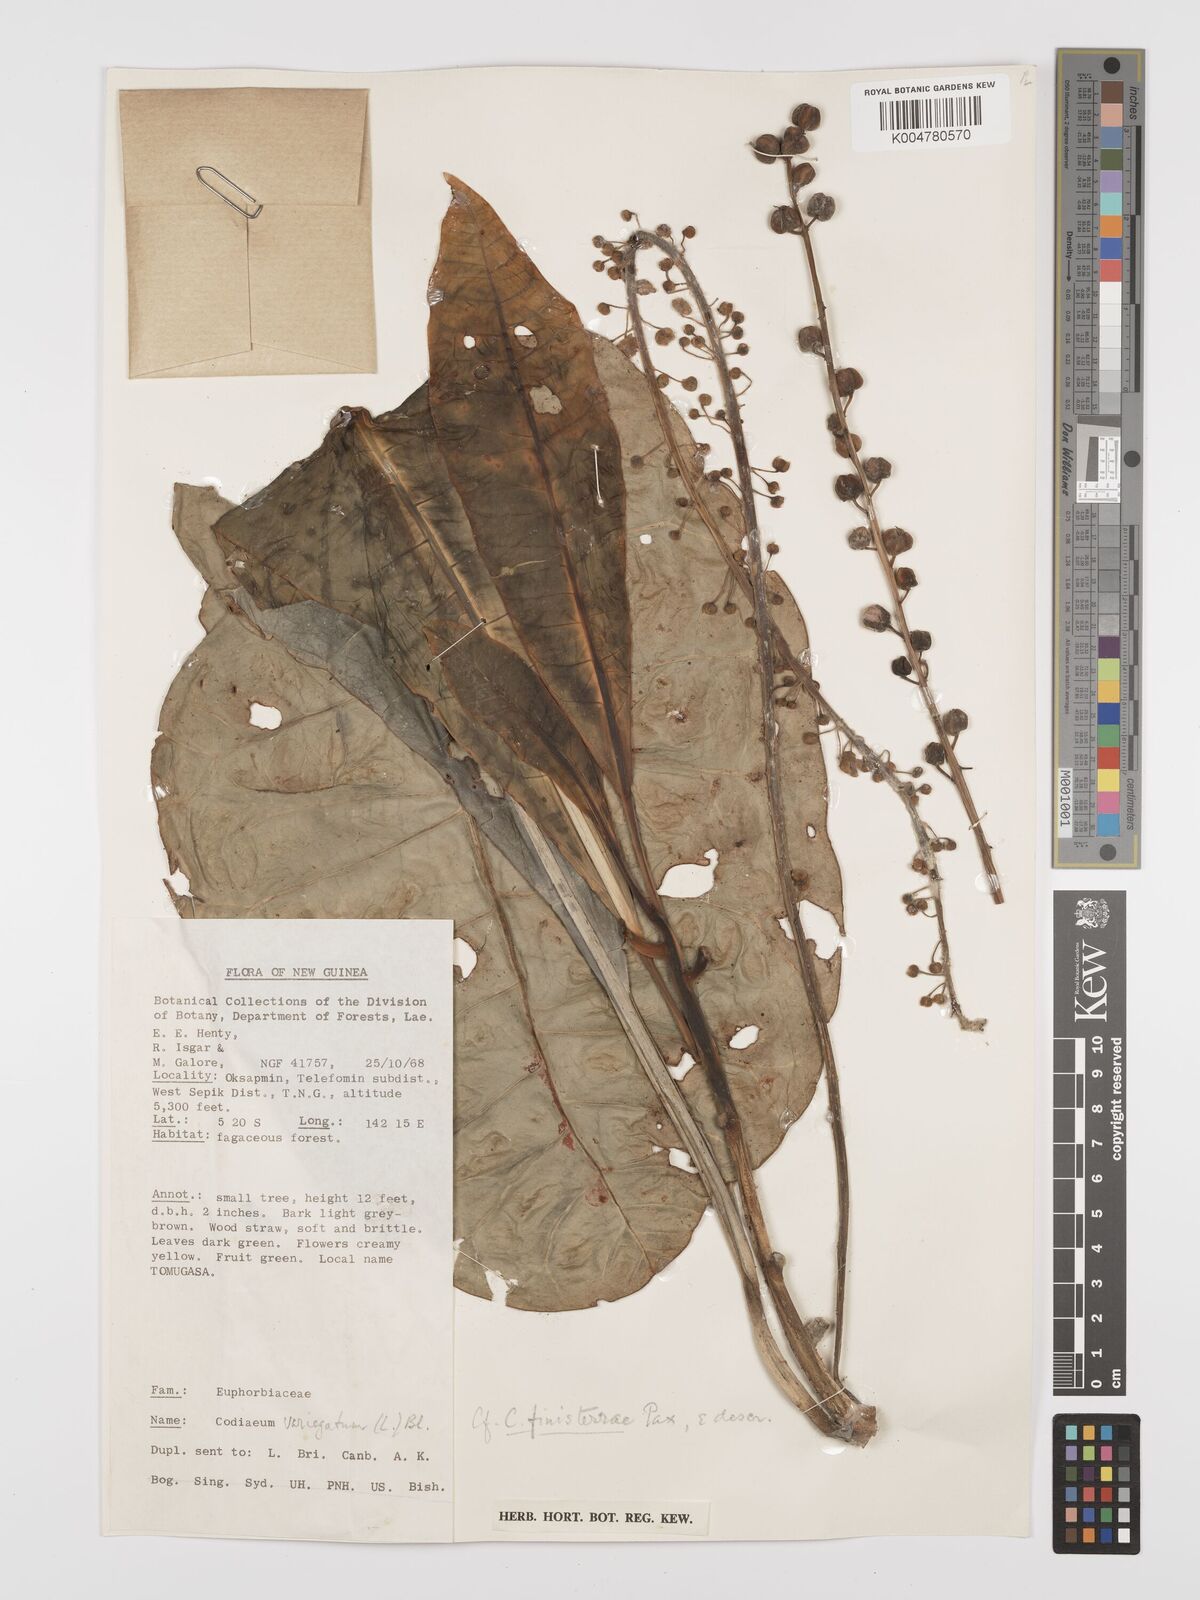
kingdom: Plantae
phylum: Tracheophyta
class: Magnoliopsida
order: Malpighiales
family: Euphorbiaceae
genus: Codiaeum
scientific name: Codiaeum finisterrae
